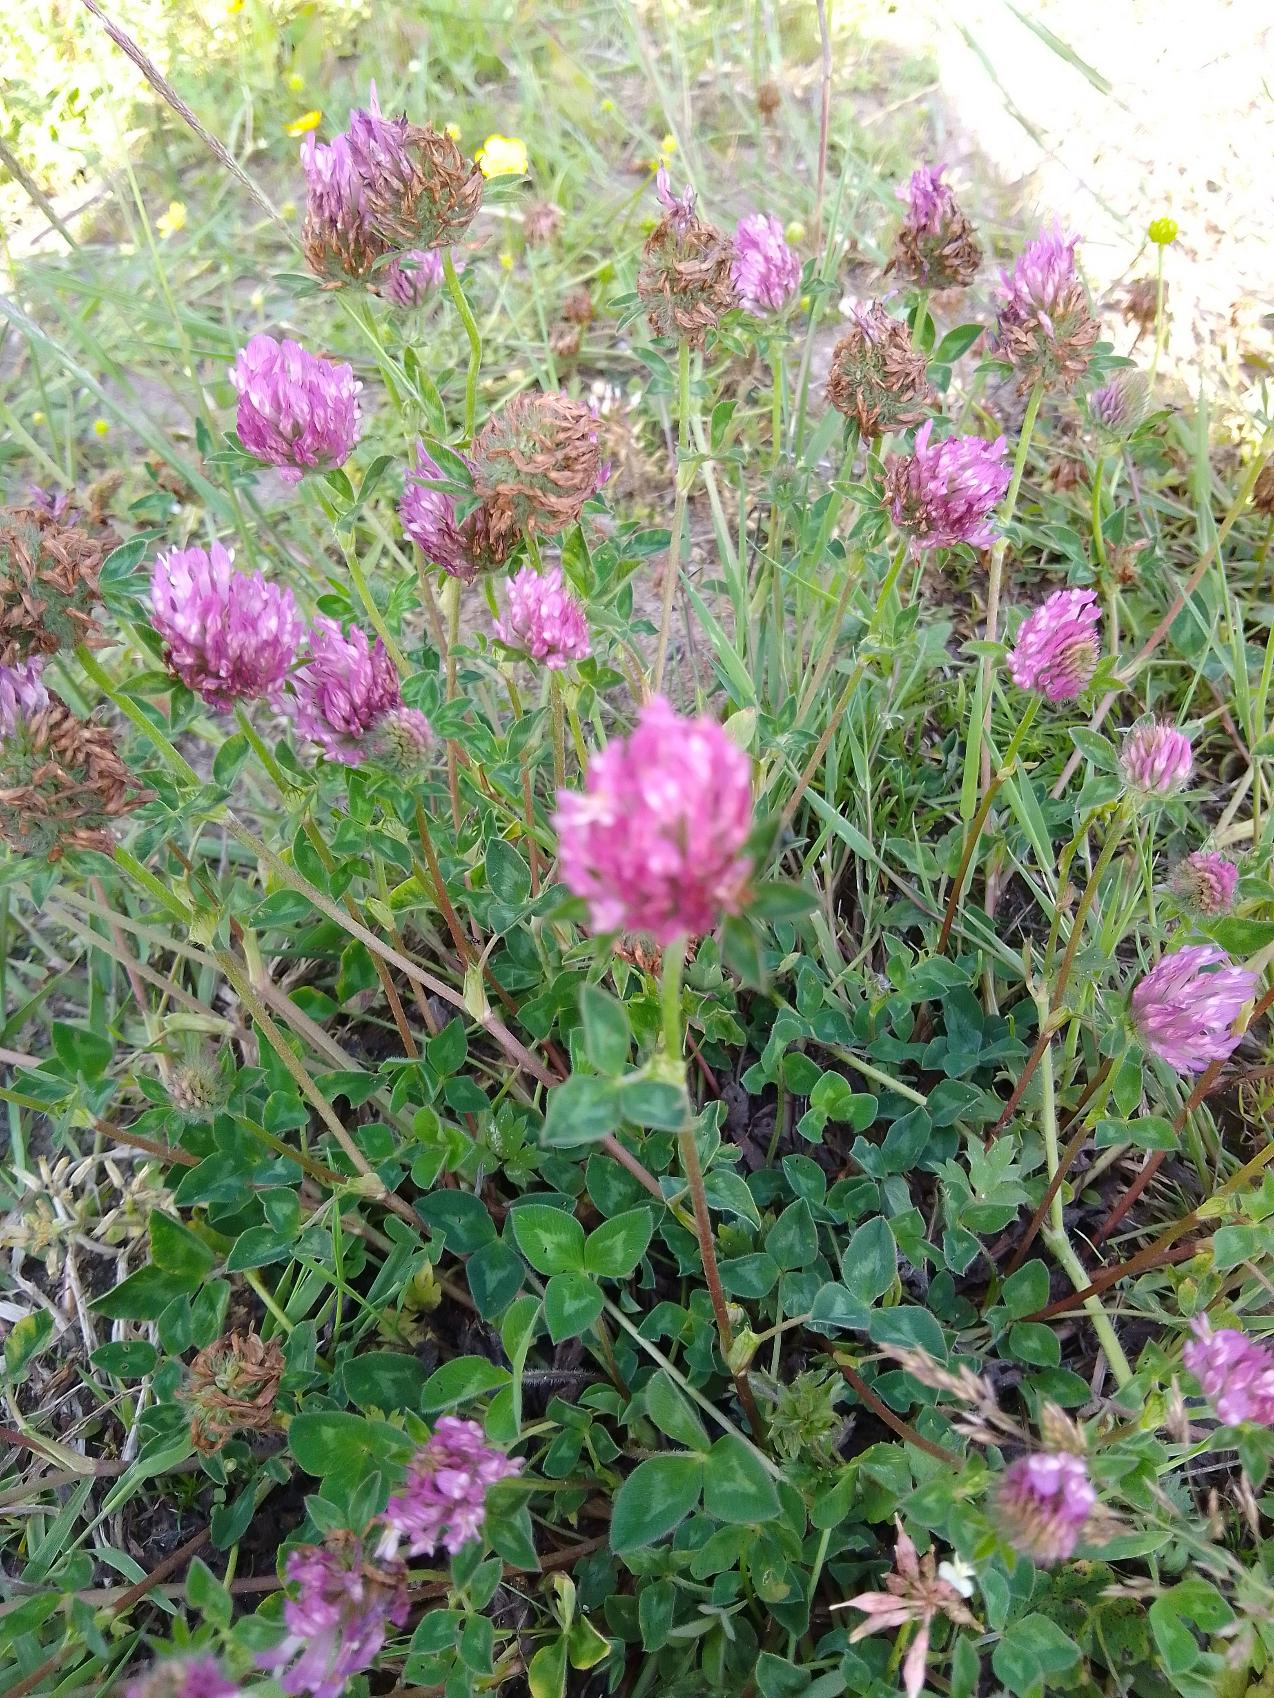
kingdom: Plantae
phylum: Tracheophyta
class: Magnoliopsida
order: Fabales
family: Fabaceae
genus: Trifolium
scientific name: Trifolium pratense
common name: Rød-kløver
